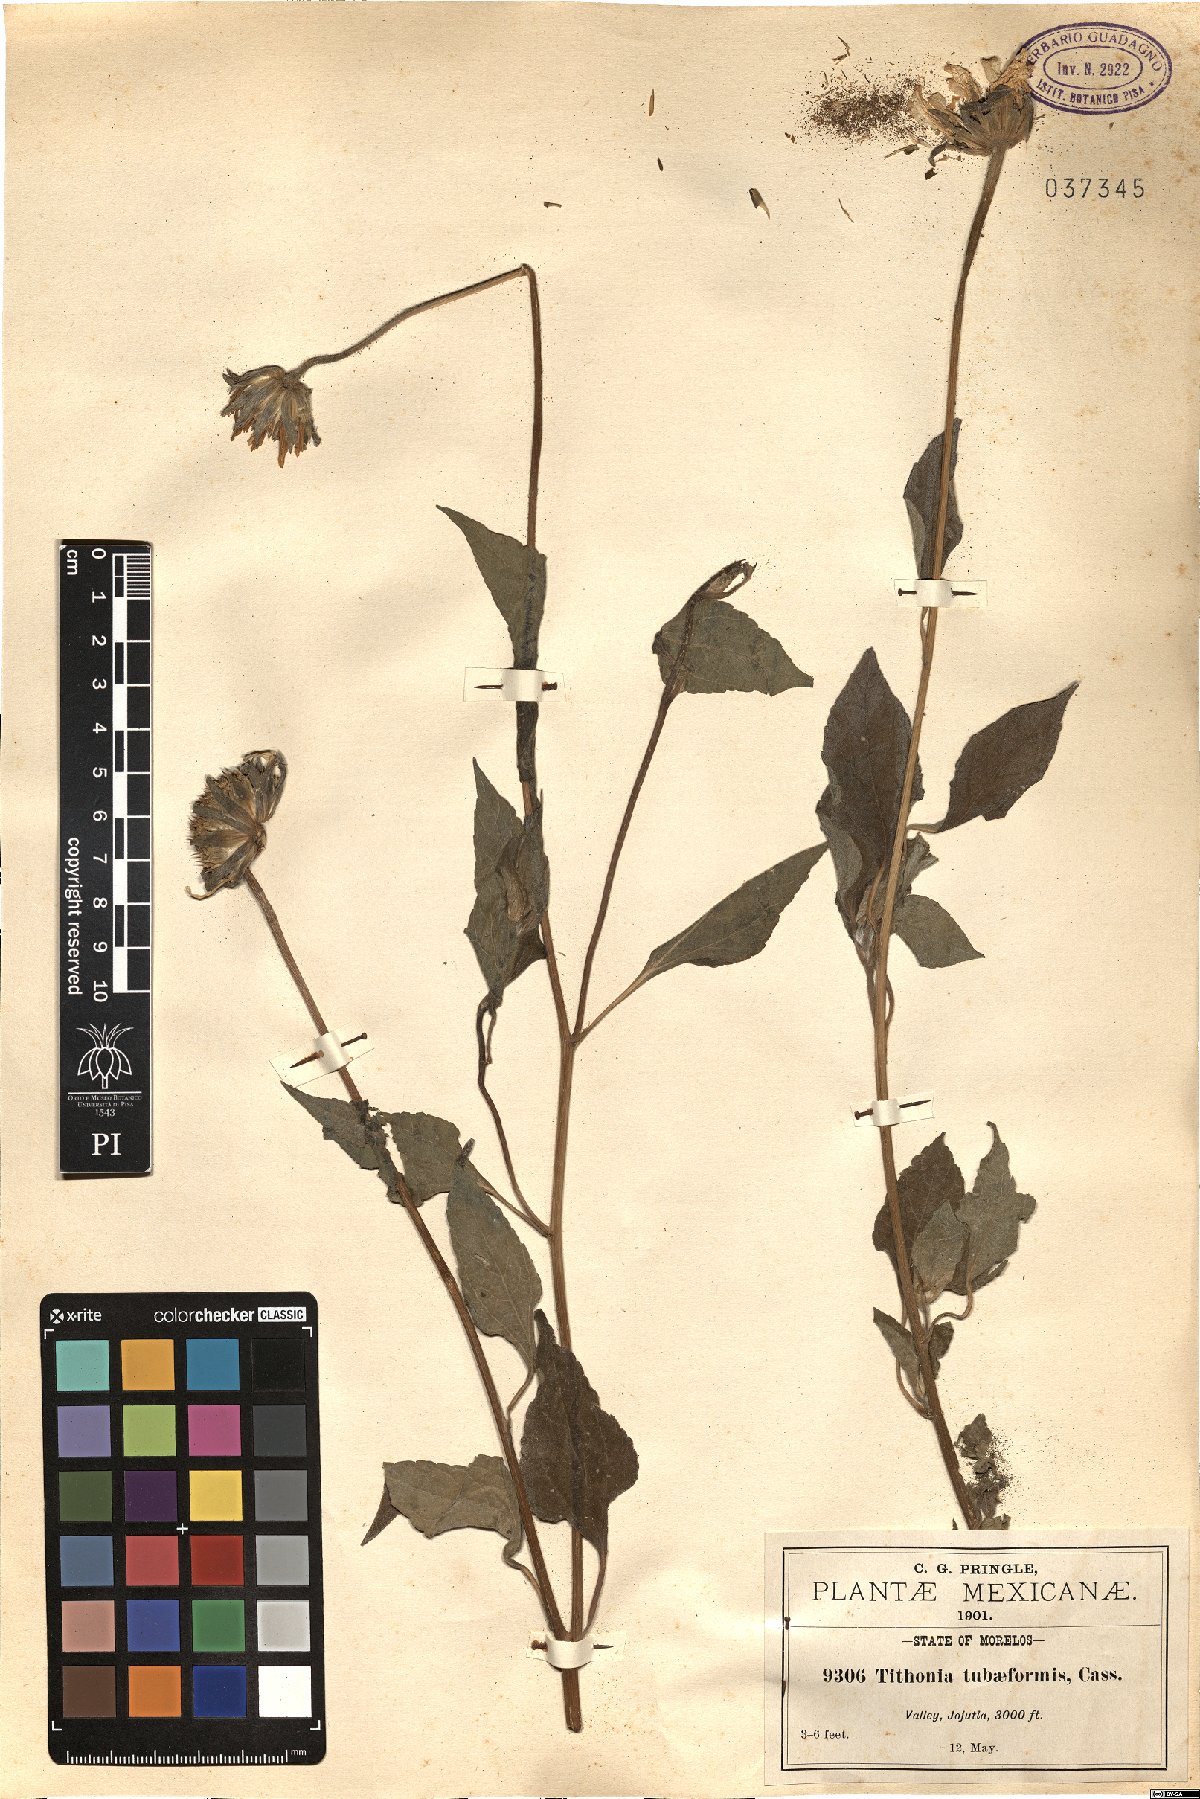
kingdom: Plantae
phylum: Tracheophyta
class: Magnoliopsida
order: Asterales
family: Asteraceae
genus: Tithonia
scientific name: Tithonia tubaeformis
